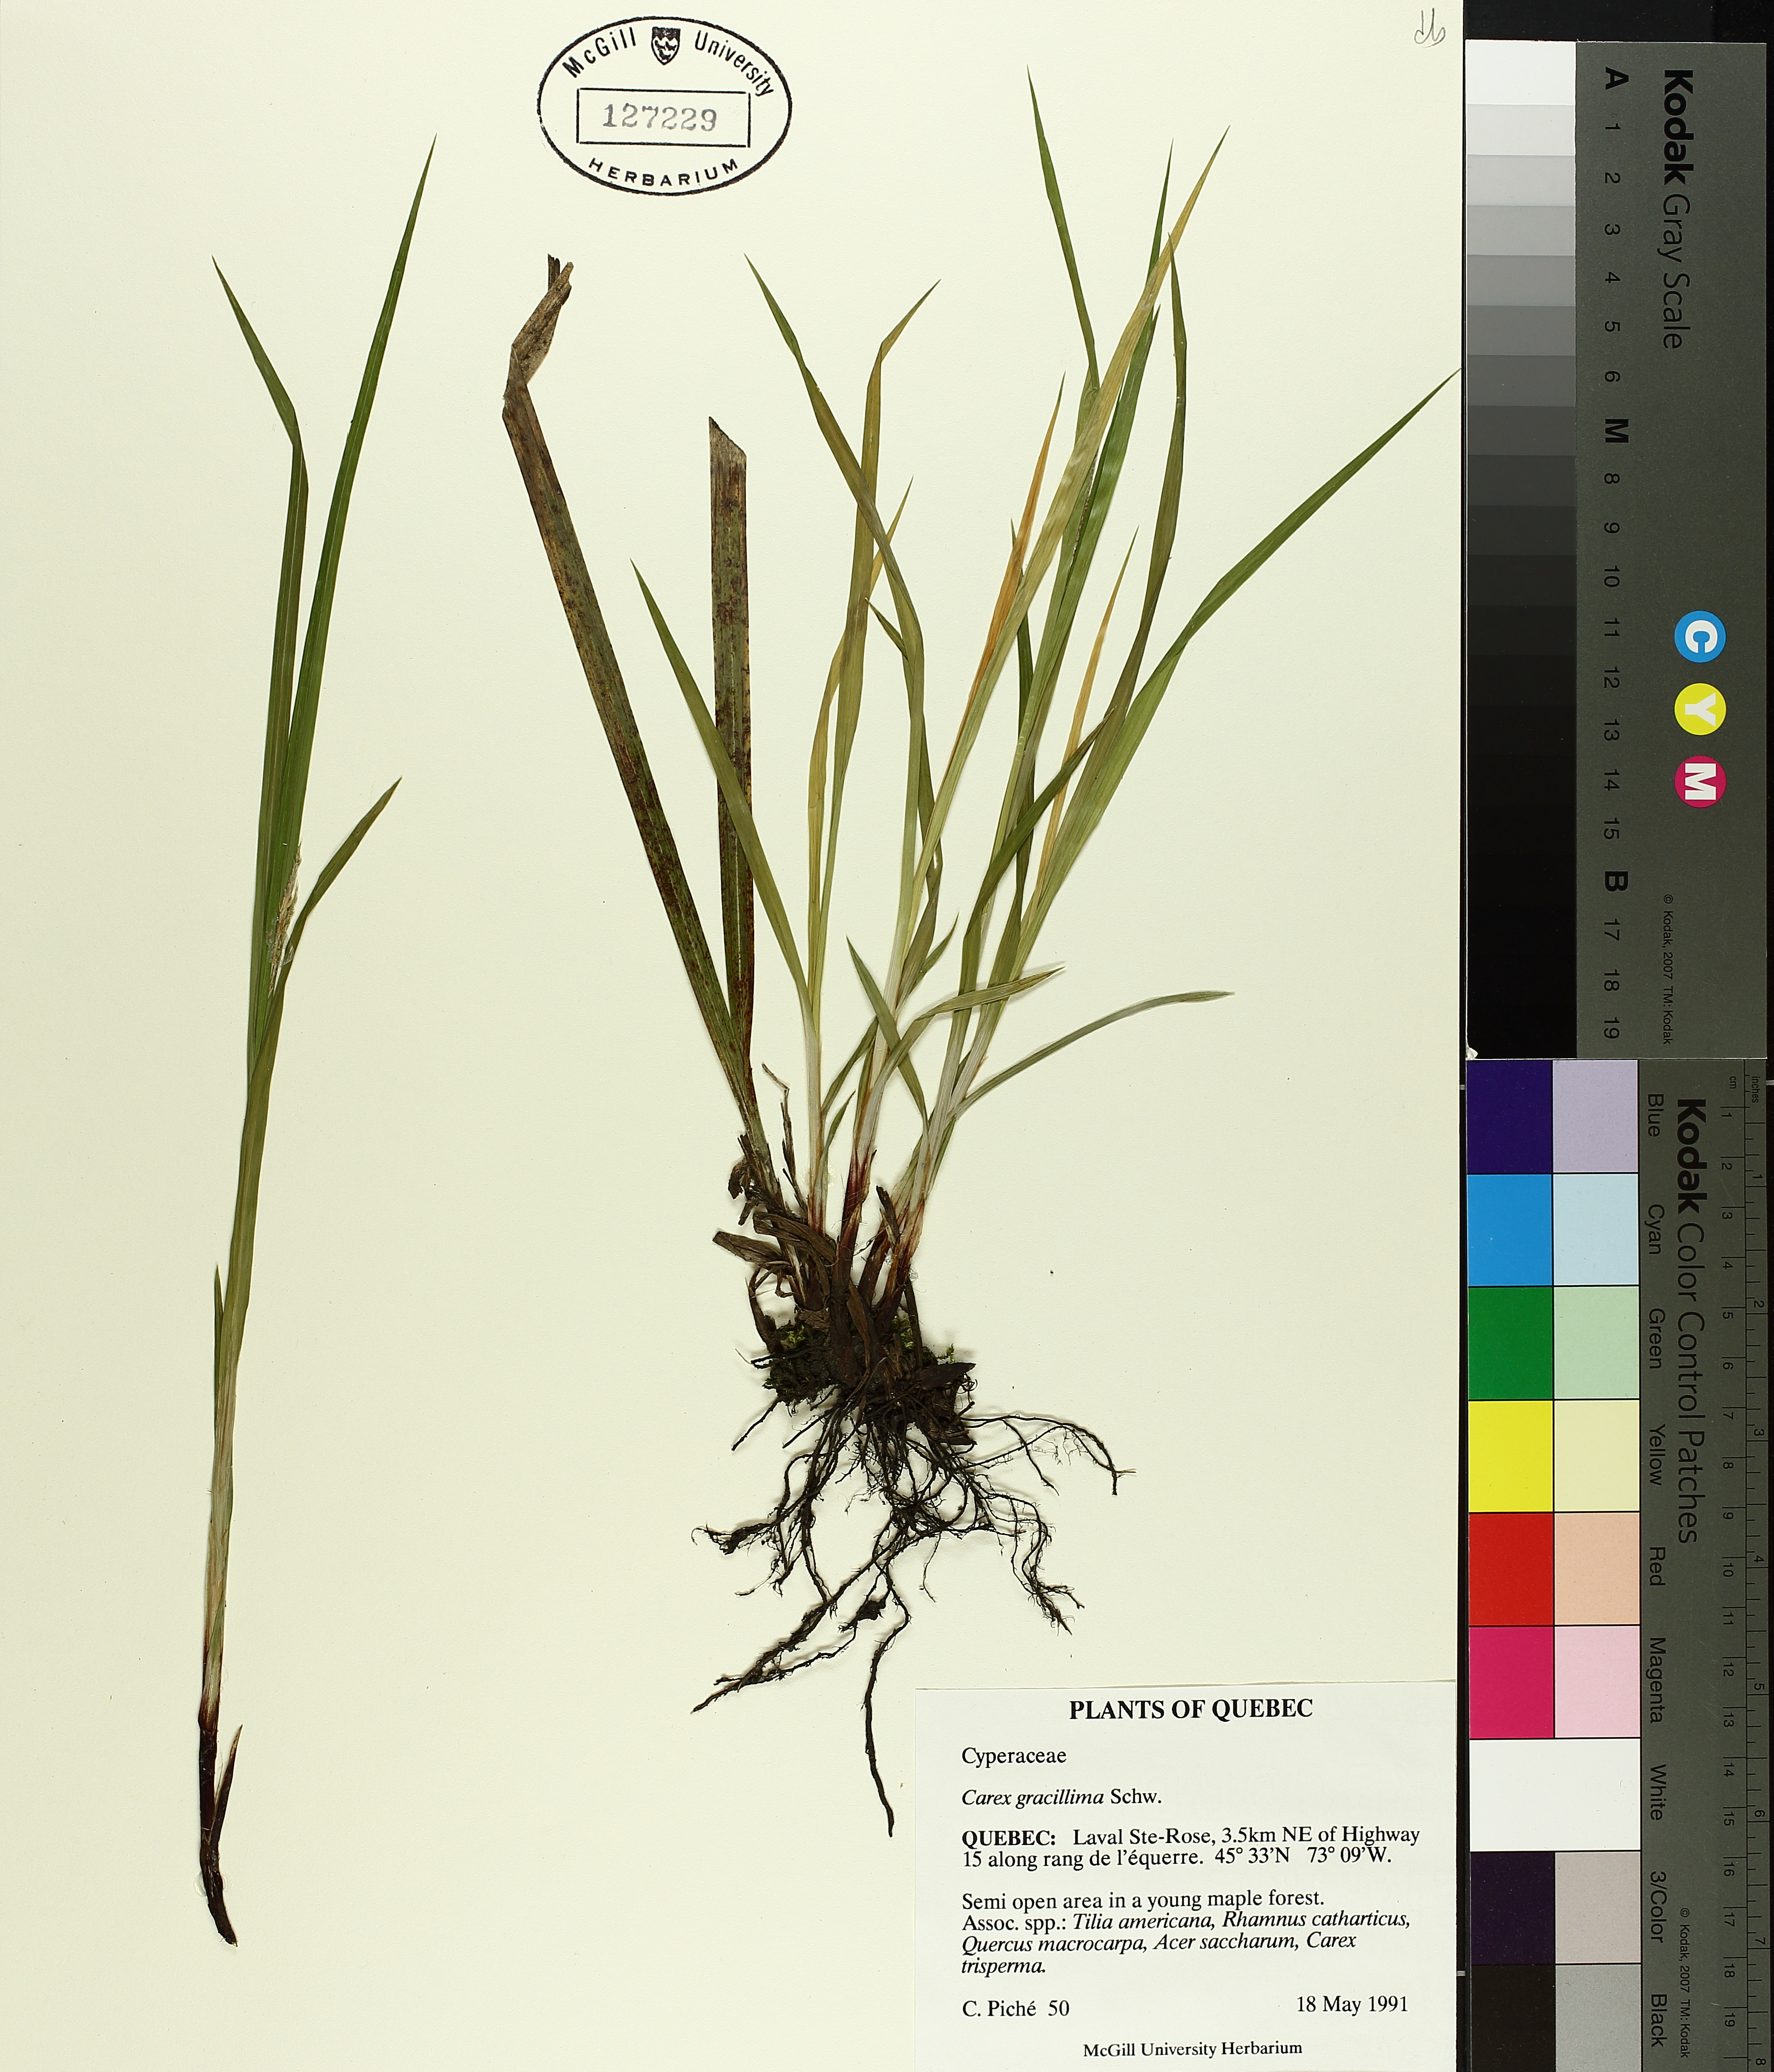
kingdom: Plantae
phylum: Tracheophyta
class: Liliopsida
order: Poales
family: Cyperaceae
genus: Carex
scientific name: Carex gracillima
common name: Graceful sedge
